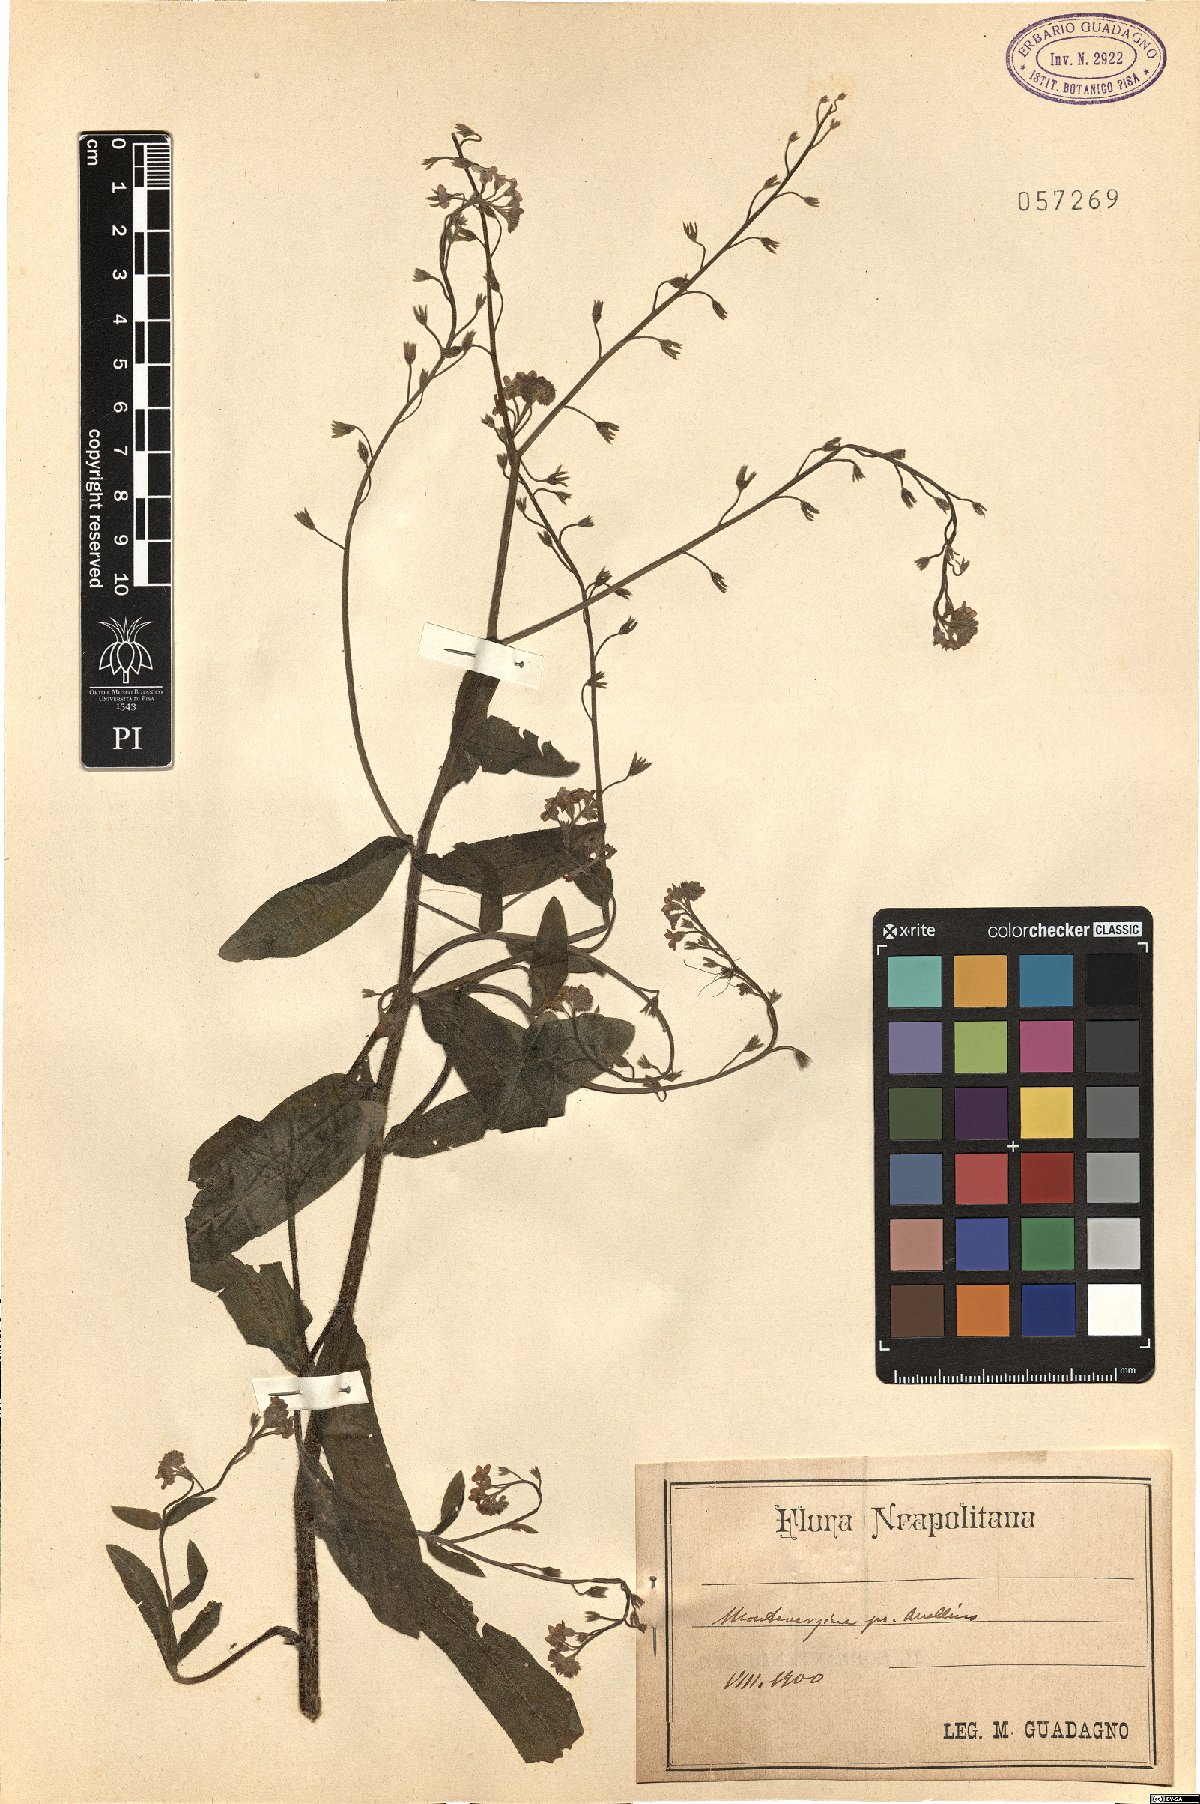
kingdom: Plantae
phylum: Tracheophyta
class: Magnoliopsida
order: Boraginales
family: Boraginaceae
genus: Myosotis
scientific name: Myosotis
